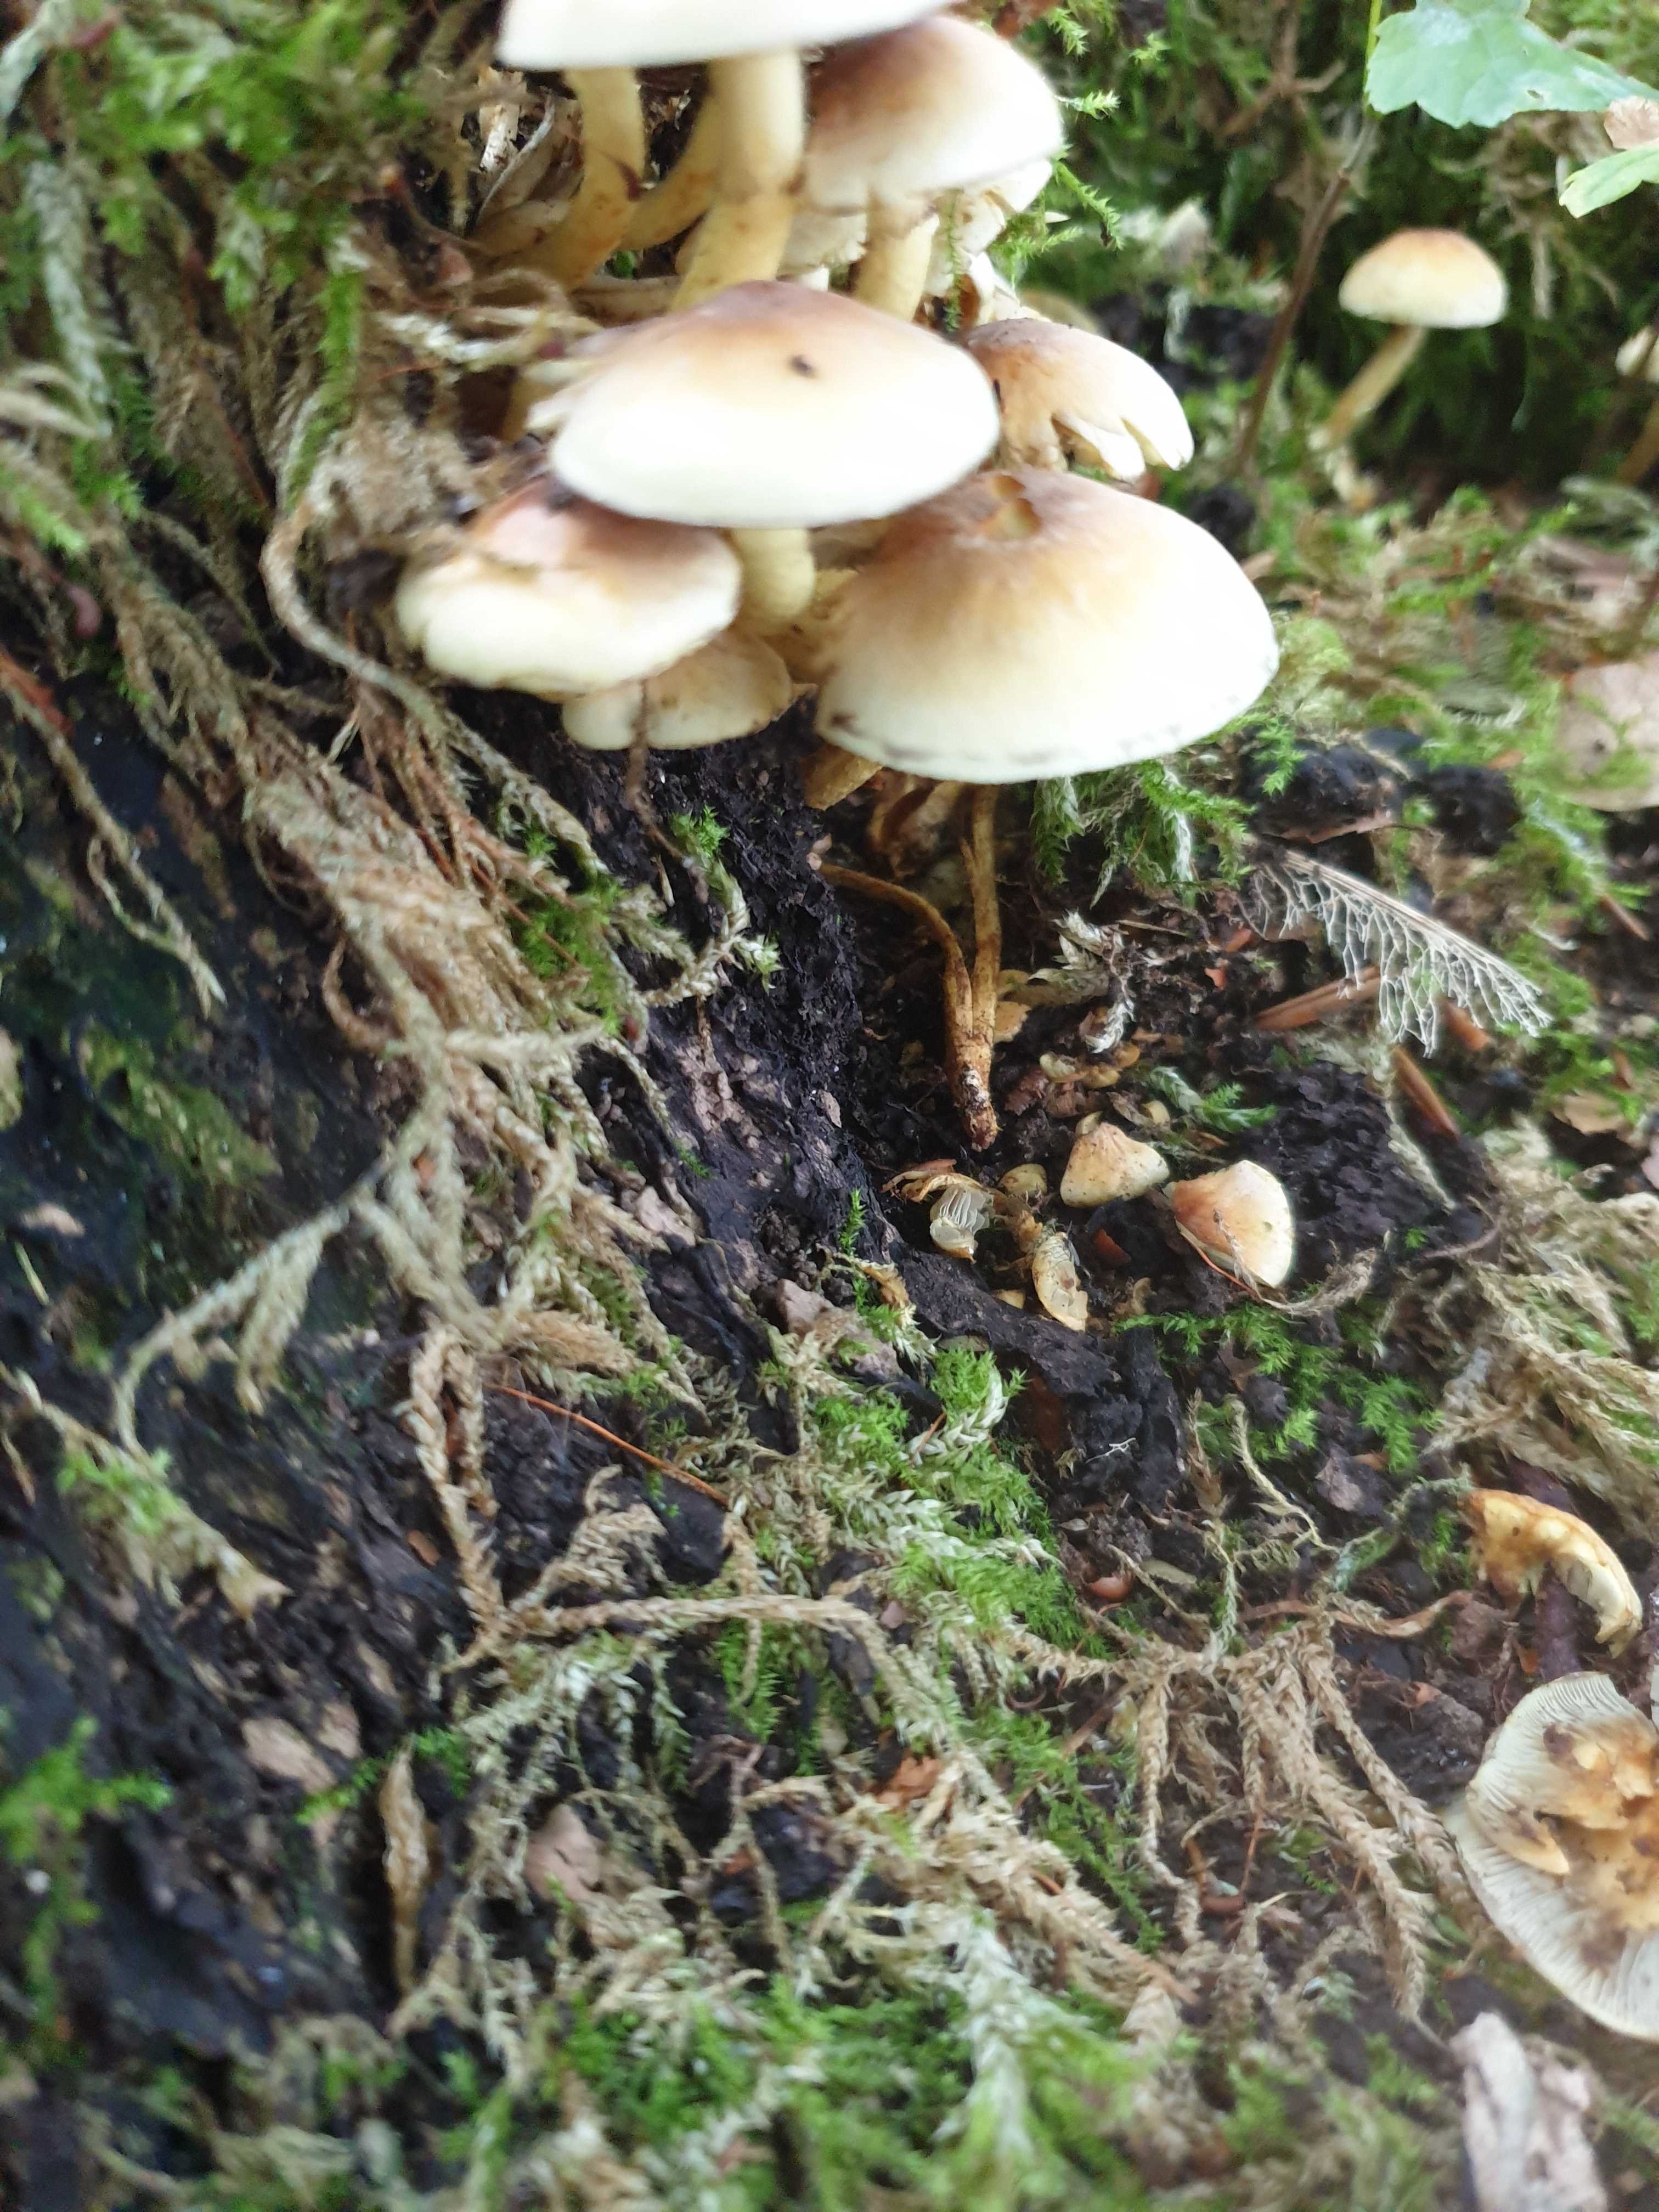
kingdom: Fungi
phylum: Basidiomycota
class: Agaricomycetes
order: Agaricales
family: Strophariaceae
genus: Hypholoma
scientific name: Hypholoma lateritium
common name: teglrød svovlhat
